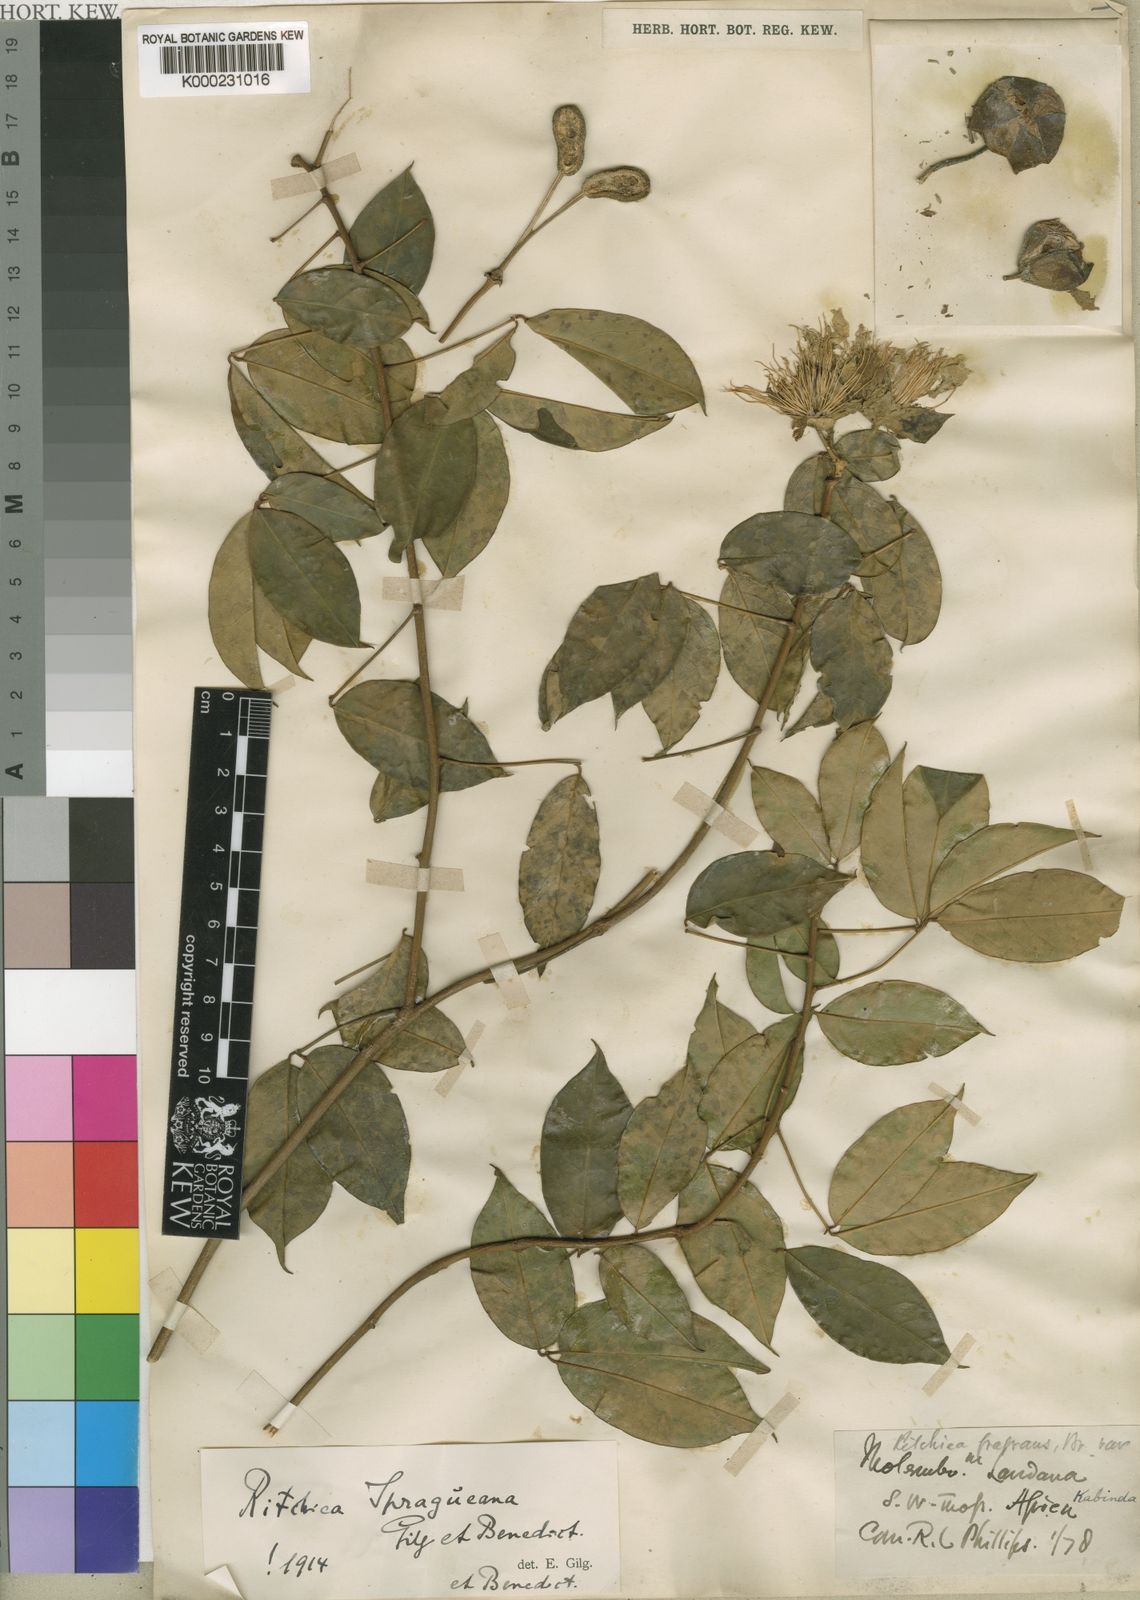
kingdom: Plantae
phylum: Tracheophyta
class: Magnoliopsida
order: Brassicales
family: Capparaceae
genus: Ritchiea
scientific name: Ritchiea spragueana
